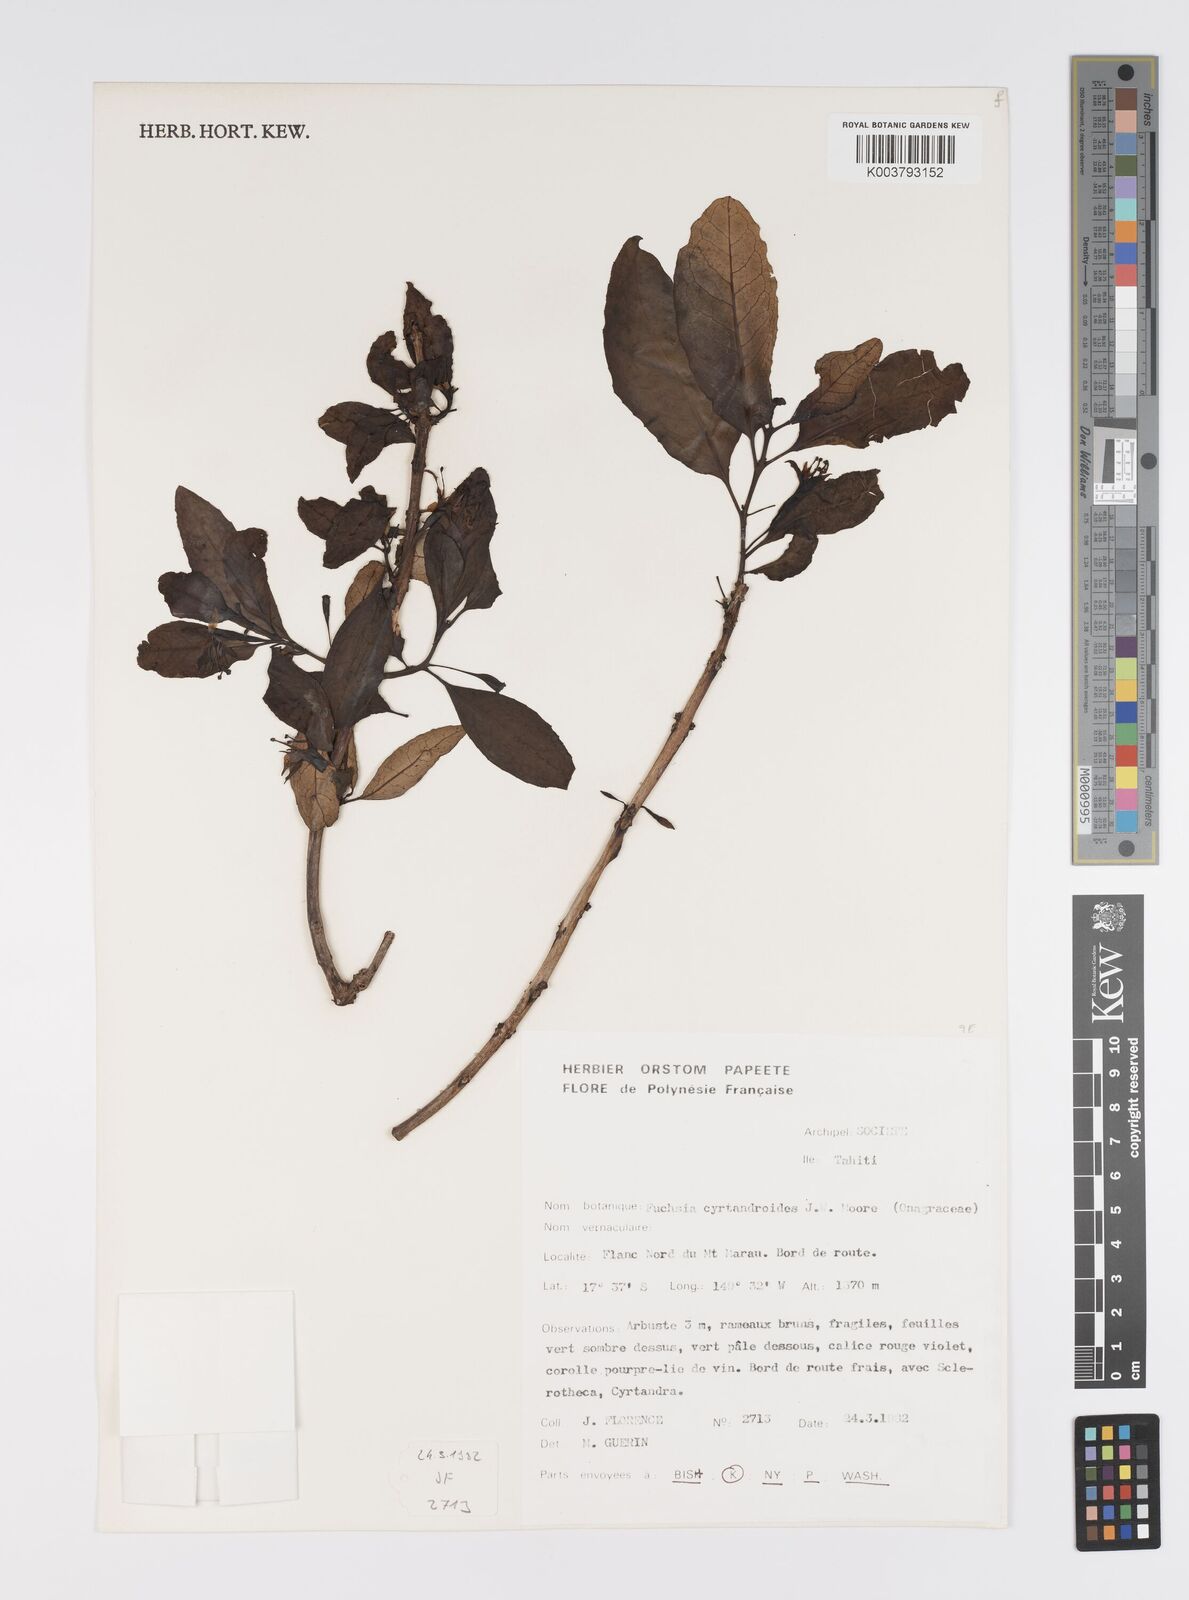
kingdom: Plantae
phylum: Tracheophyta
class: Magnoliopsida
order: Myrtales
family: Onagraceae
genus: Fuchsia
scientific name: Fuchsia cyrtandroides
